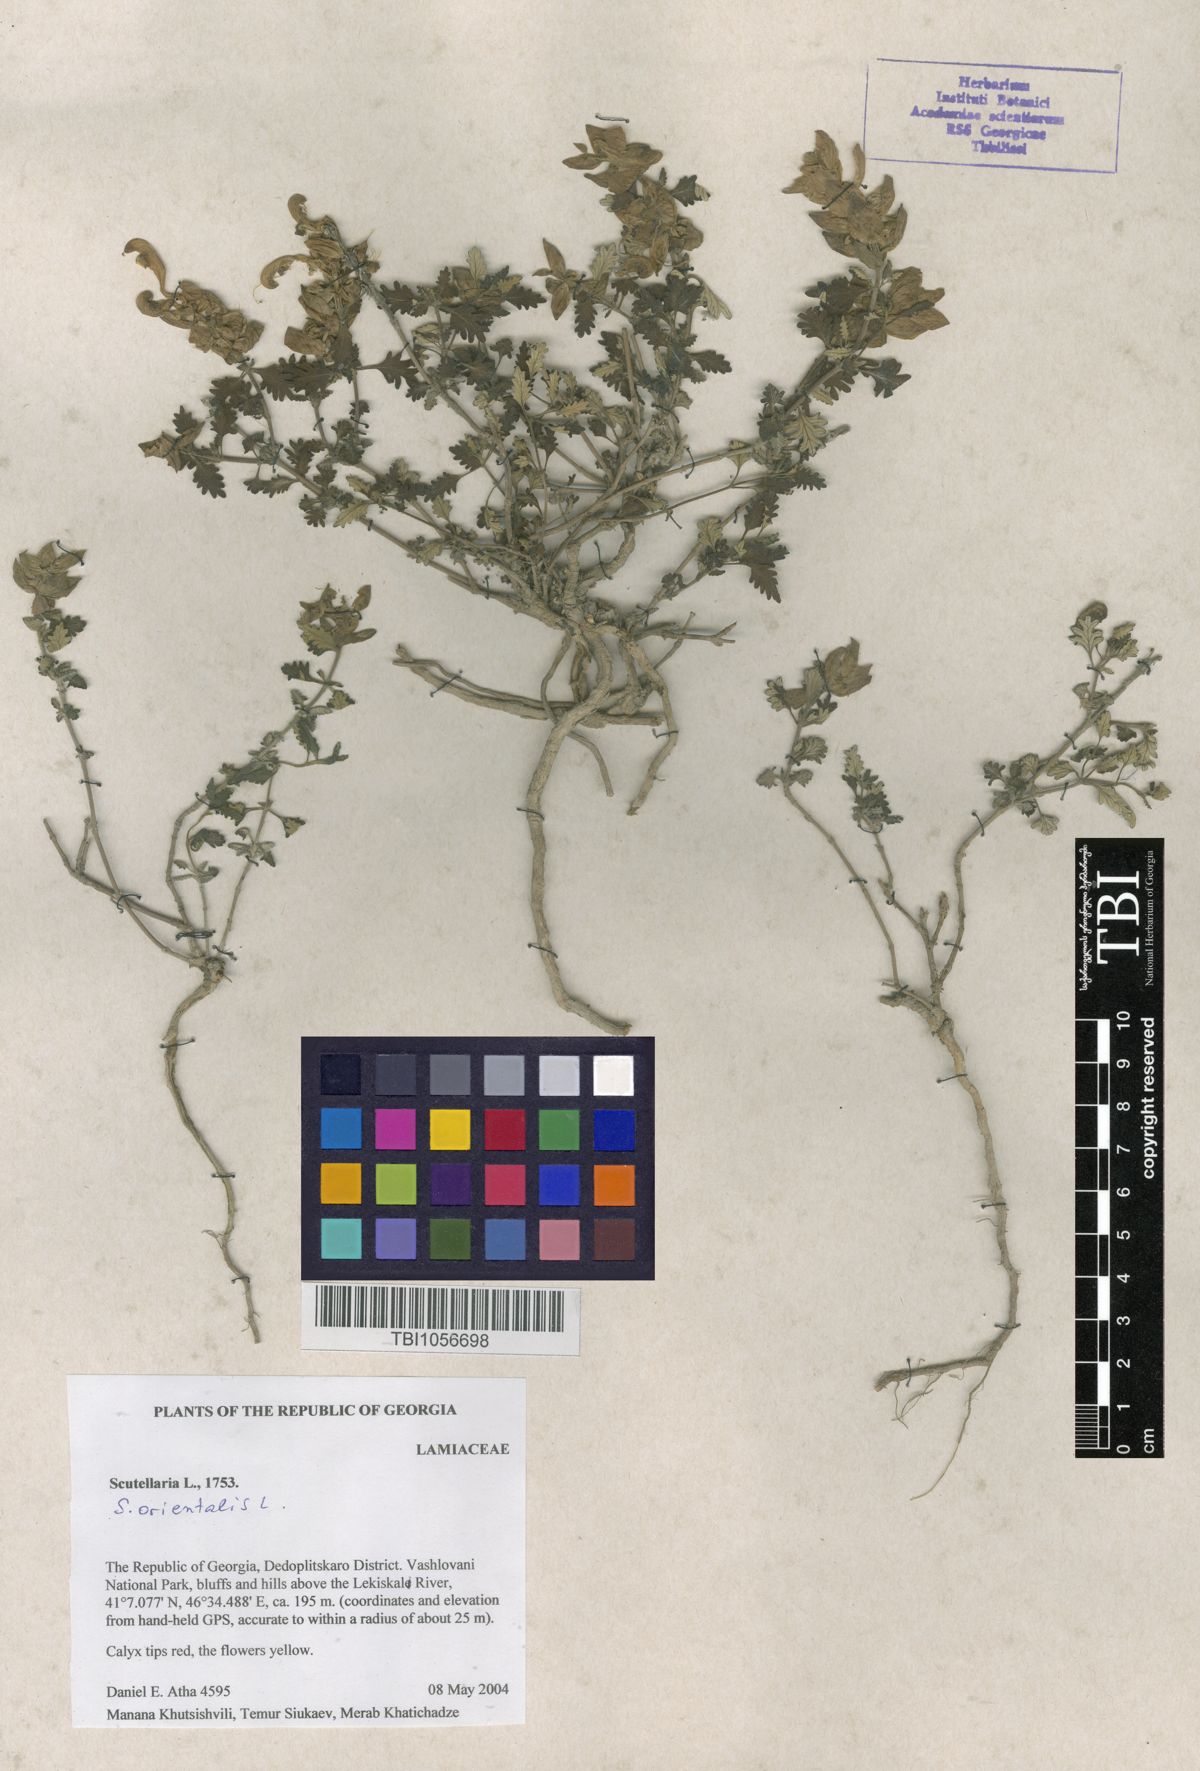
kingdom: Plantae
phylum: Tracheophyta
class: Magnoliopsida
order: Lamiales
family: Lamiaceae
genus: Scutellaria
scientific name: Scutellaria orientalis
